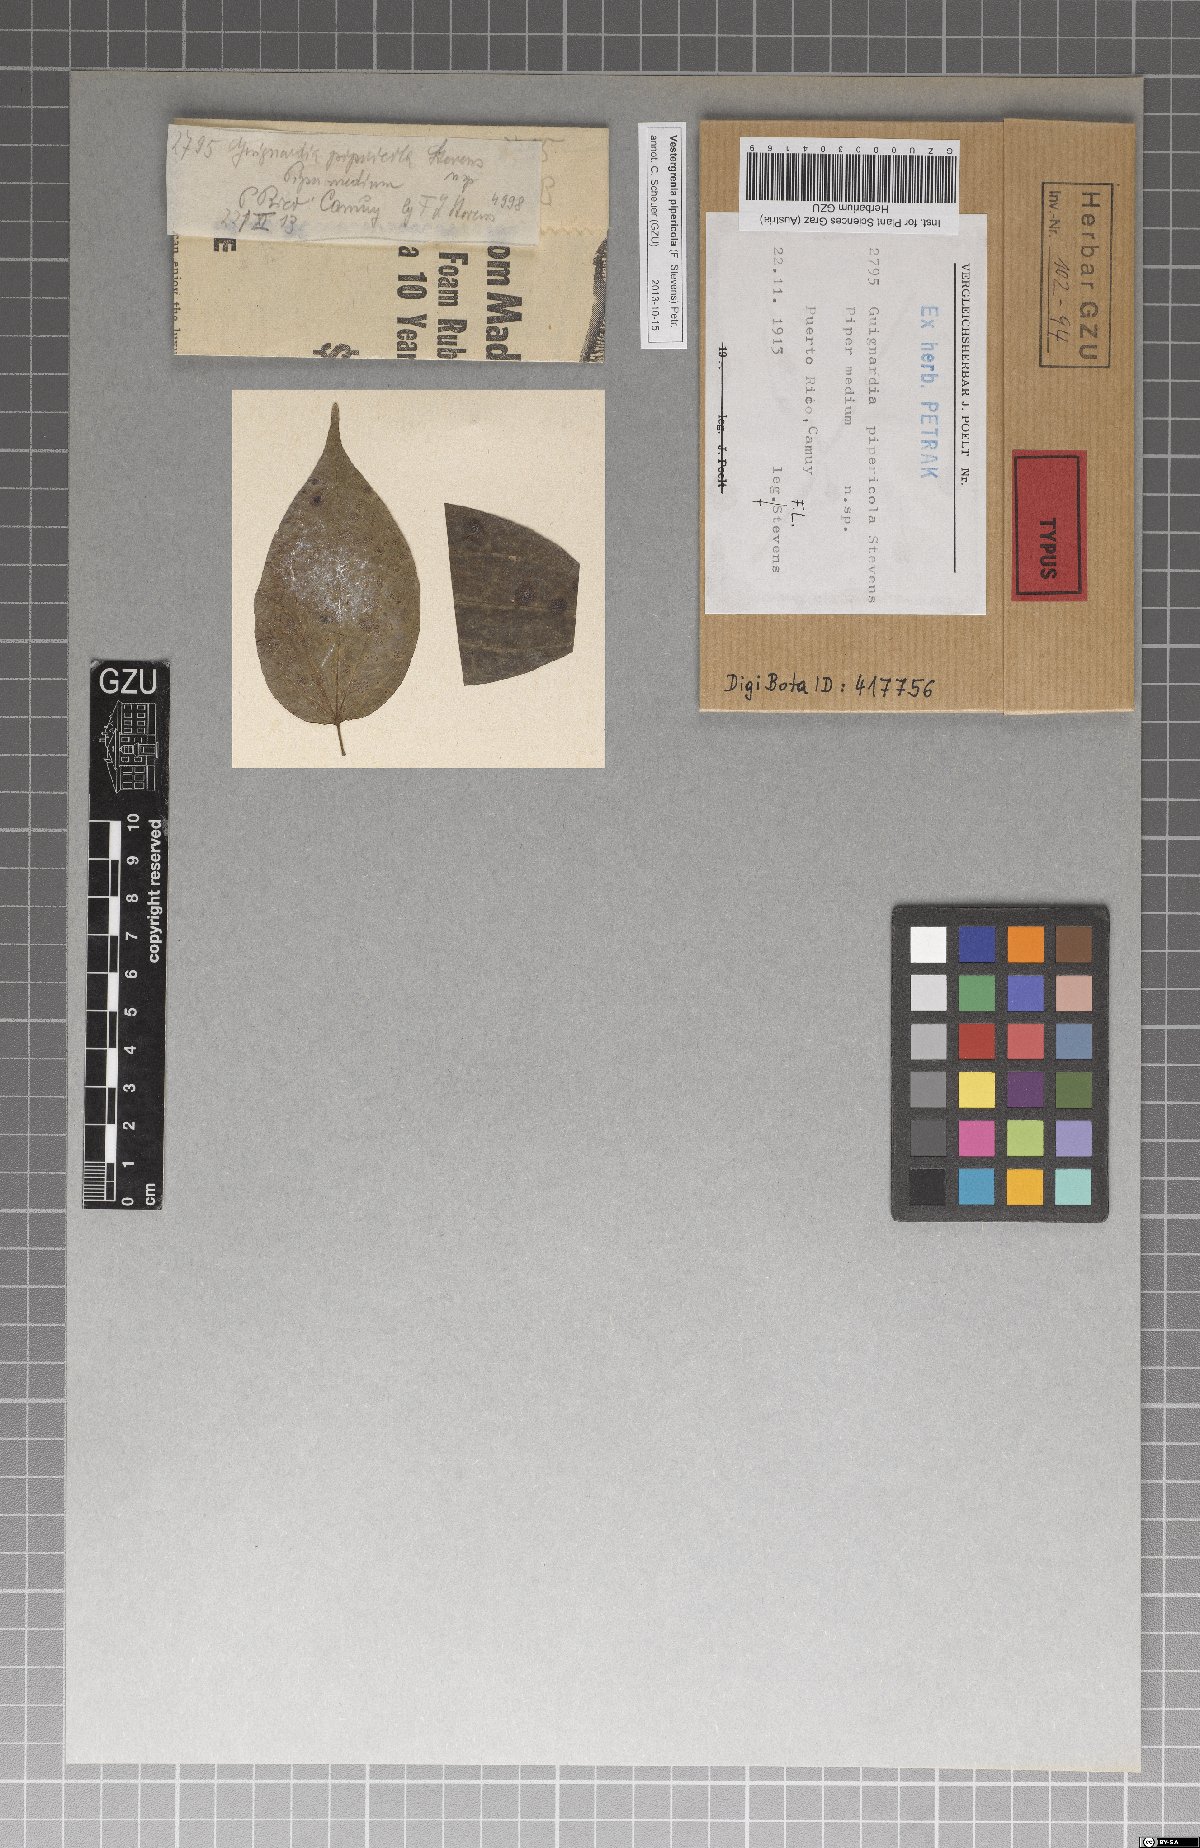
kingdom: Fungi
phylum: Ascomycota
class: Dothideomycetes
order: Dothideales
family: Dothideaceae
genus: Vestergrenia
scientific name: Vestergrenia pipericola
